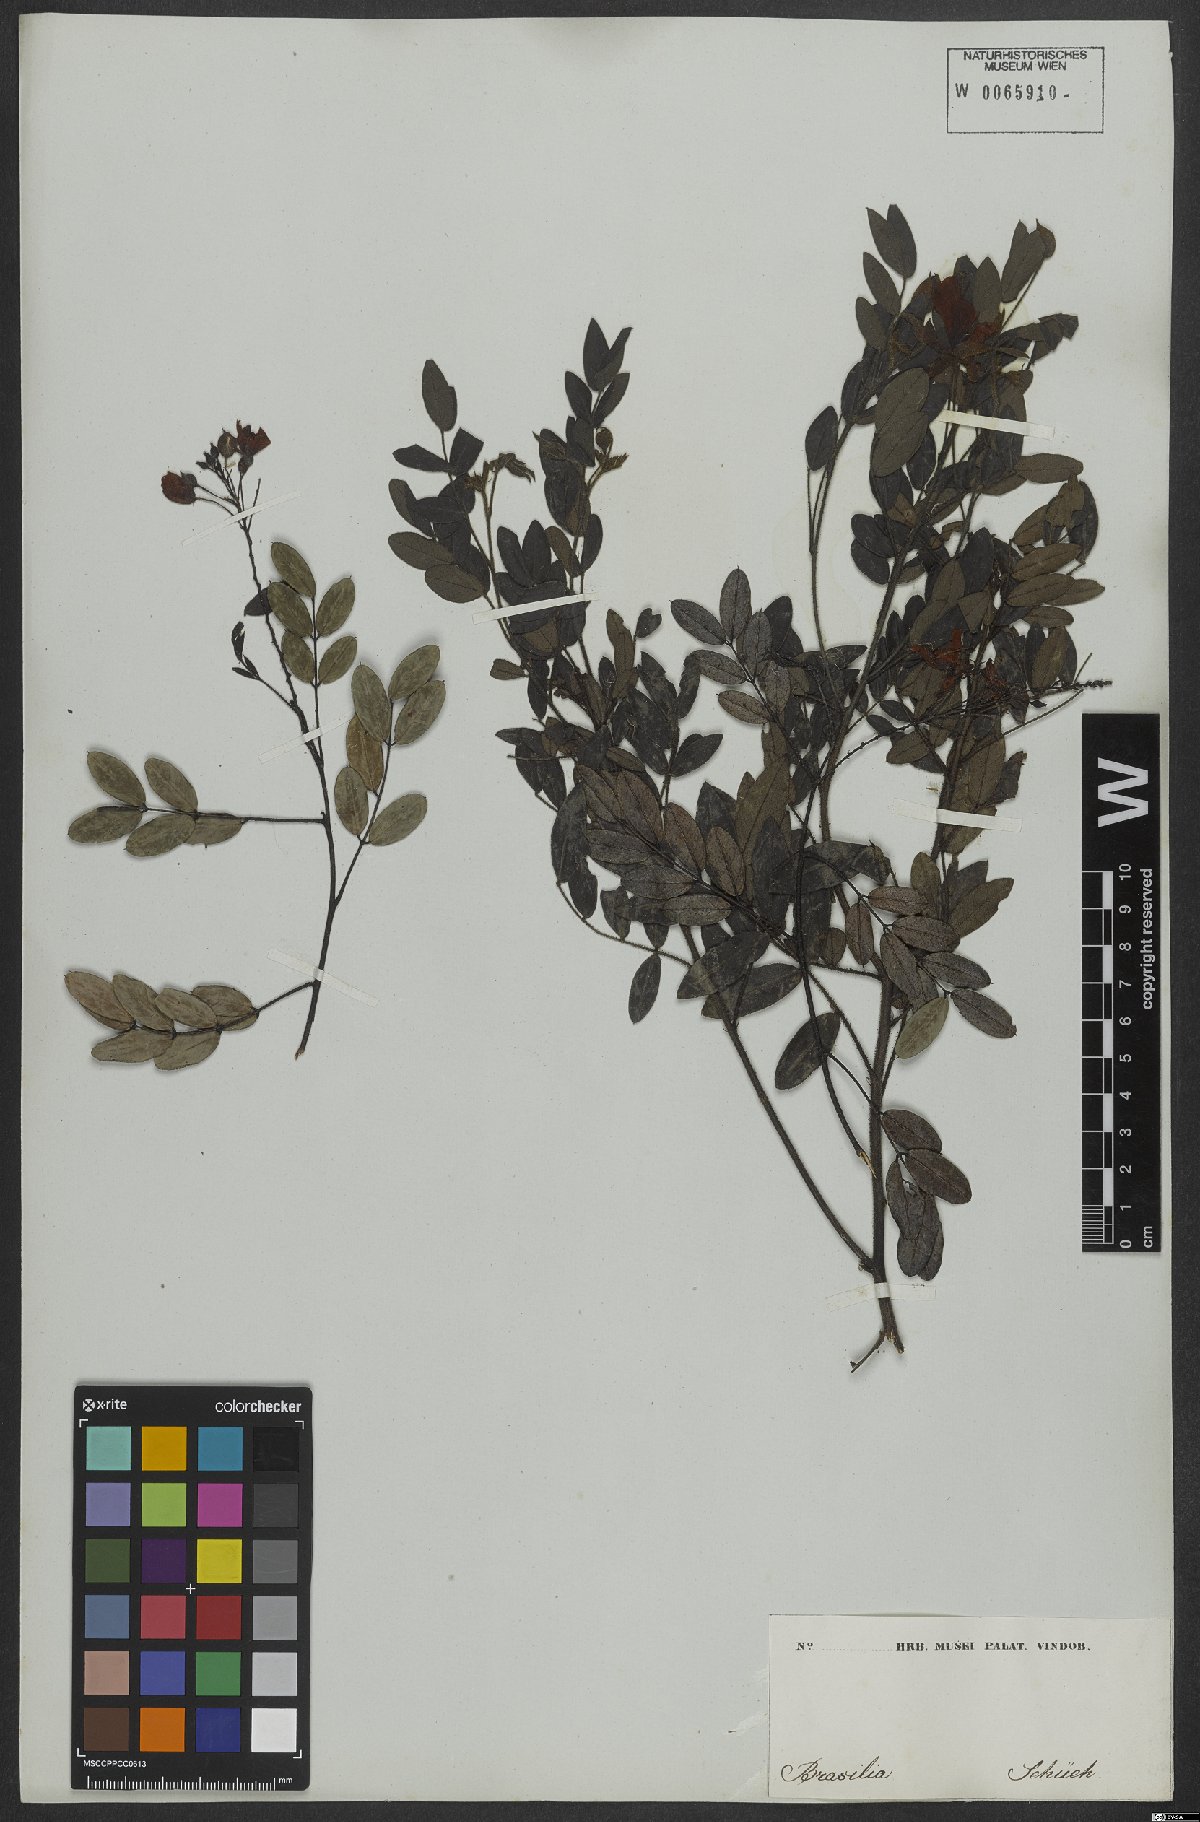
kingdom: Plantae
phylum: Tracheophyta
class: Magnoliopsida
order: Fabales
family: Fabaceae
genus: Chamaecrista
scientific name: Chamaecrista cathartica
